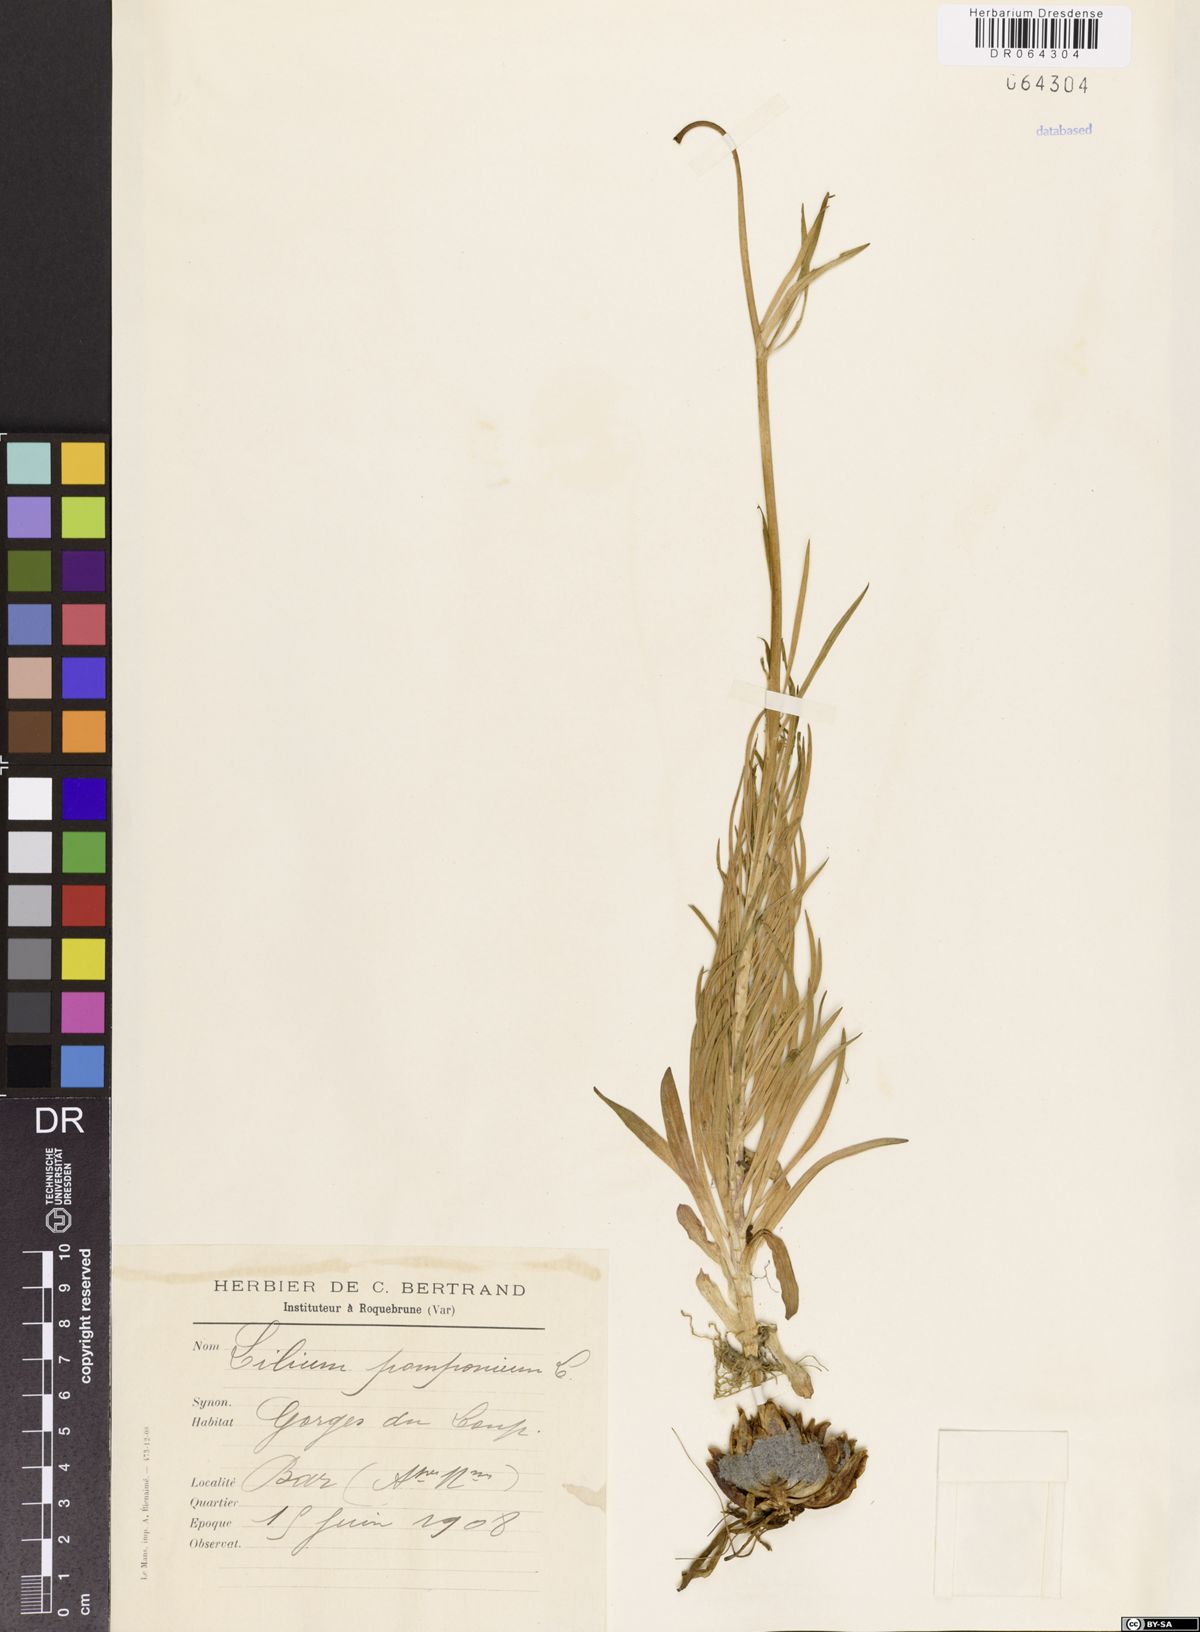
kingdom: Plantae
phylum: Tracheophyta
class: Liliopsida
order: Liliales
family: Liliaceae
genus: Lilium
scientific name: Lilium pomponium
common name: Minor turk's-cap lily
